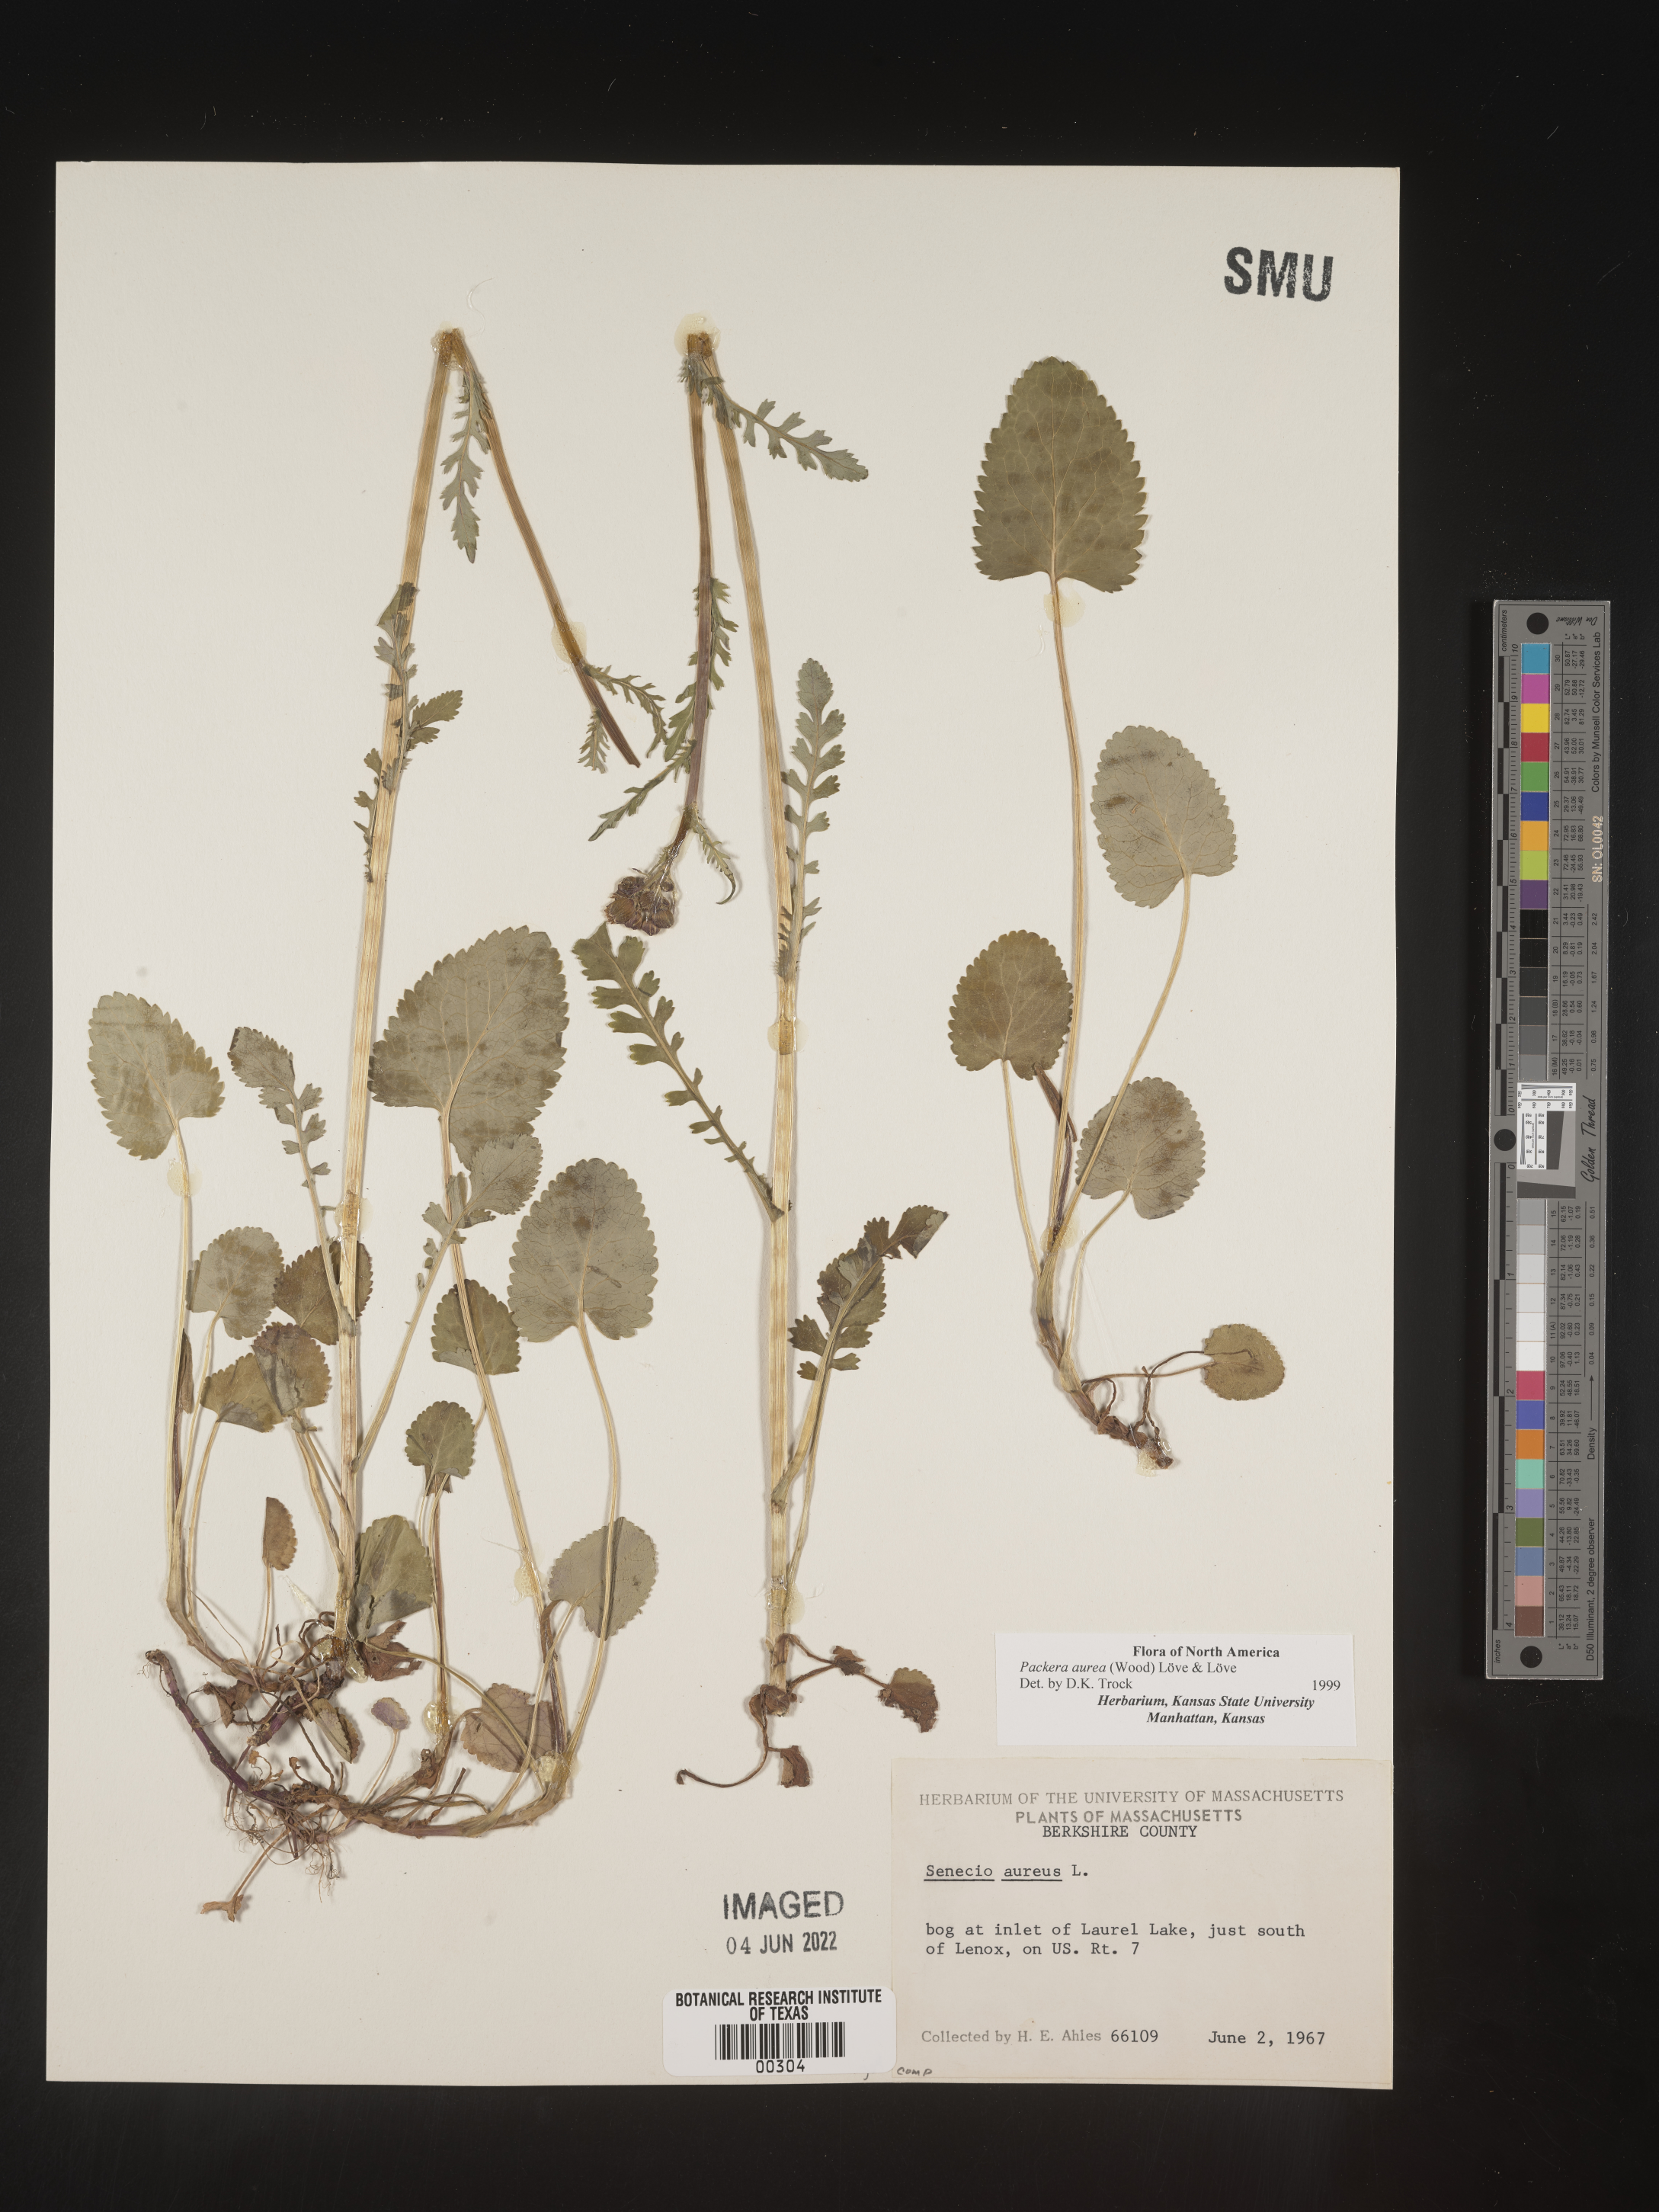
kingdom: Plantae
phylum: Tracheophyta
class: Magnoliopsida
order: Asterales
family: Asteraceae
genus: Packera
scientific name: Packera aurea
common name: Golden groundsel
